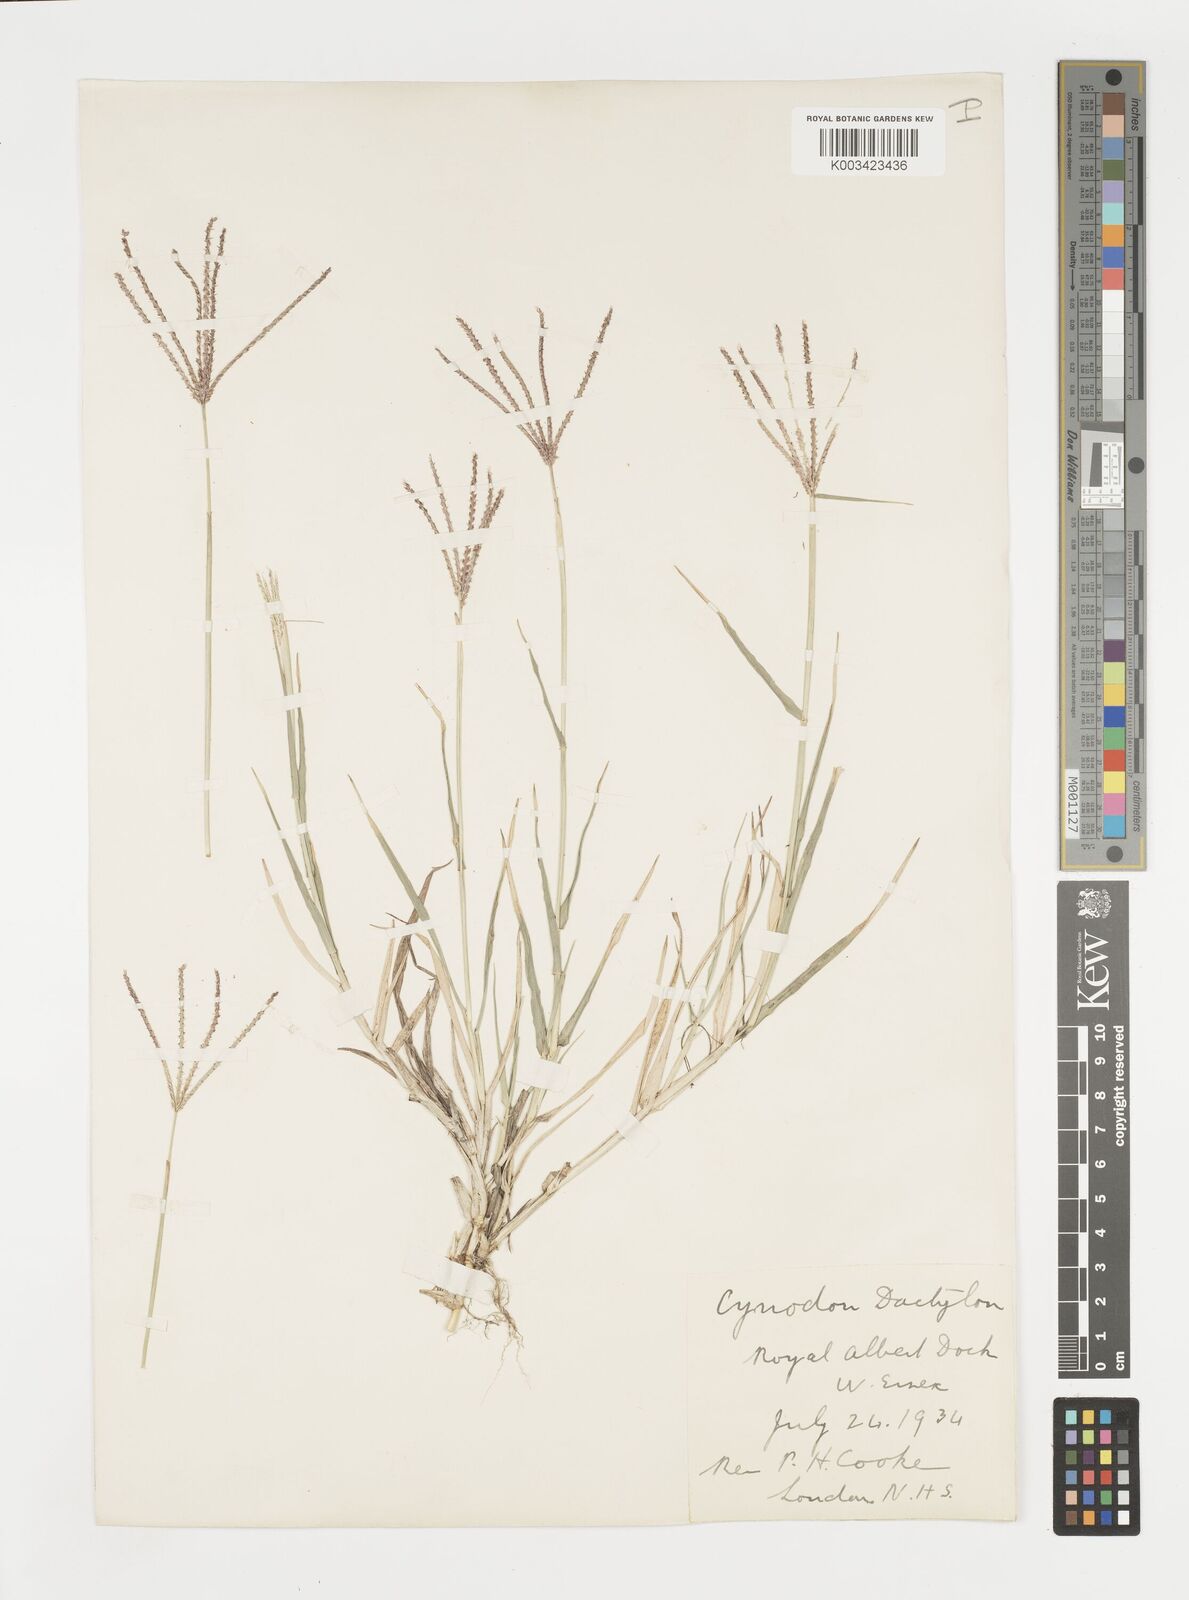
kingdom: Plantae
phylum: Tracheophyta
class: Liliopsida
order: Poales
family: Poaceae
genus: Cynodon
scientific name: Cynodon dactylon
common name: Bermuda grass
